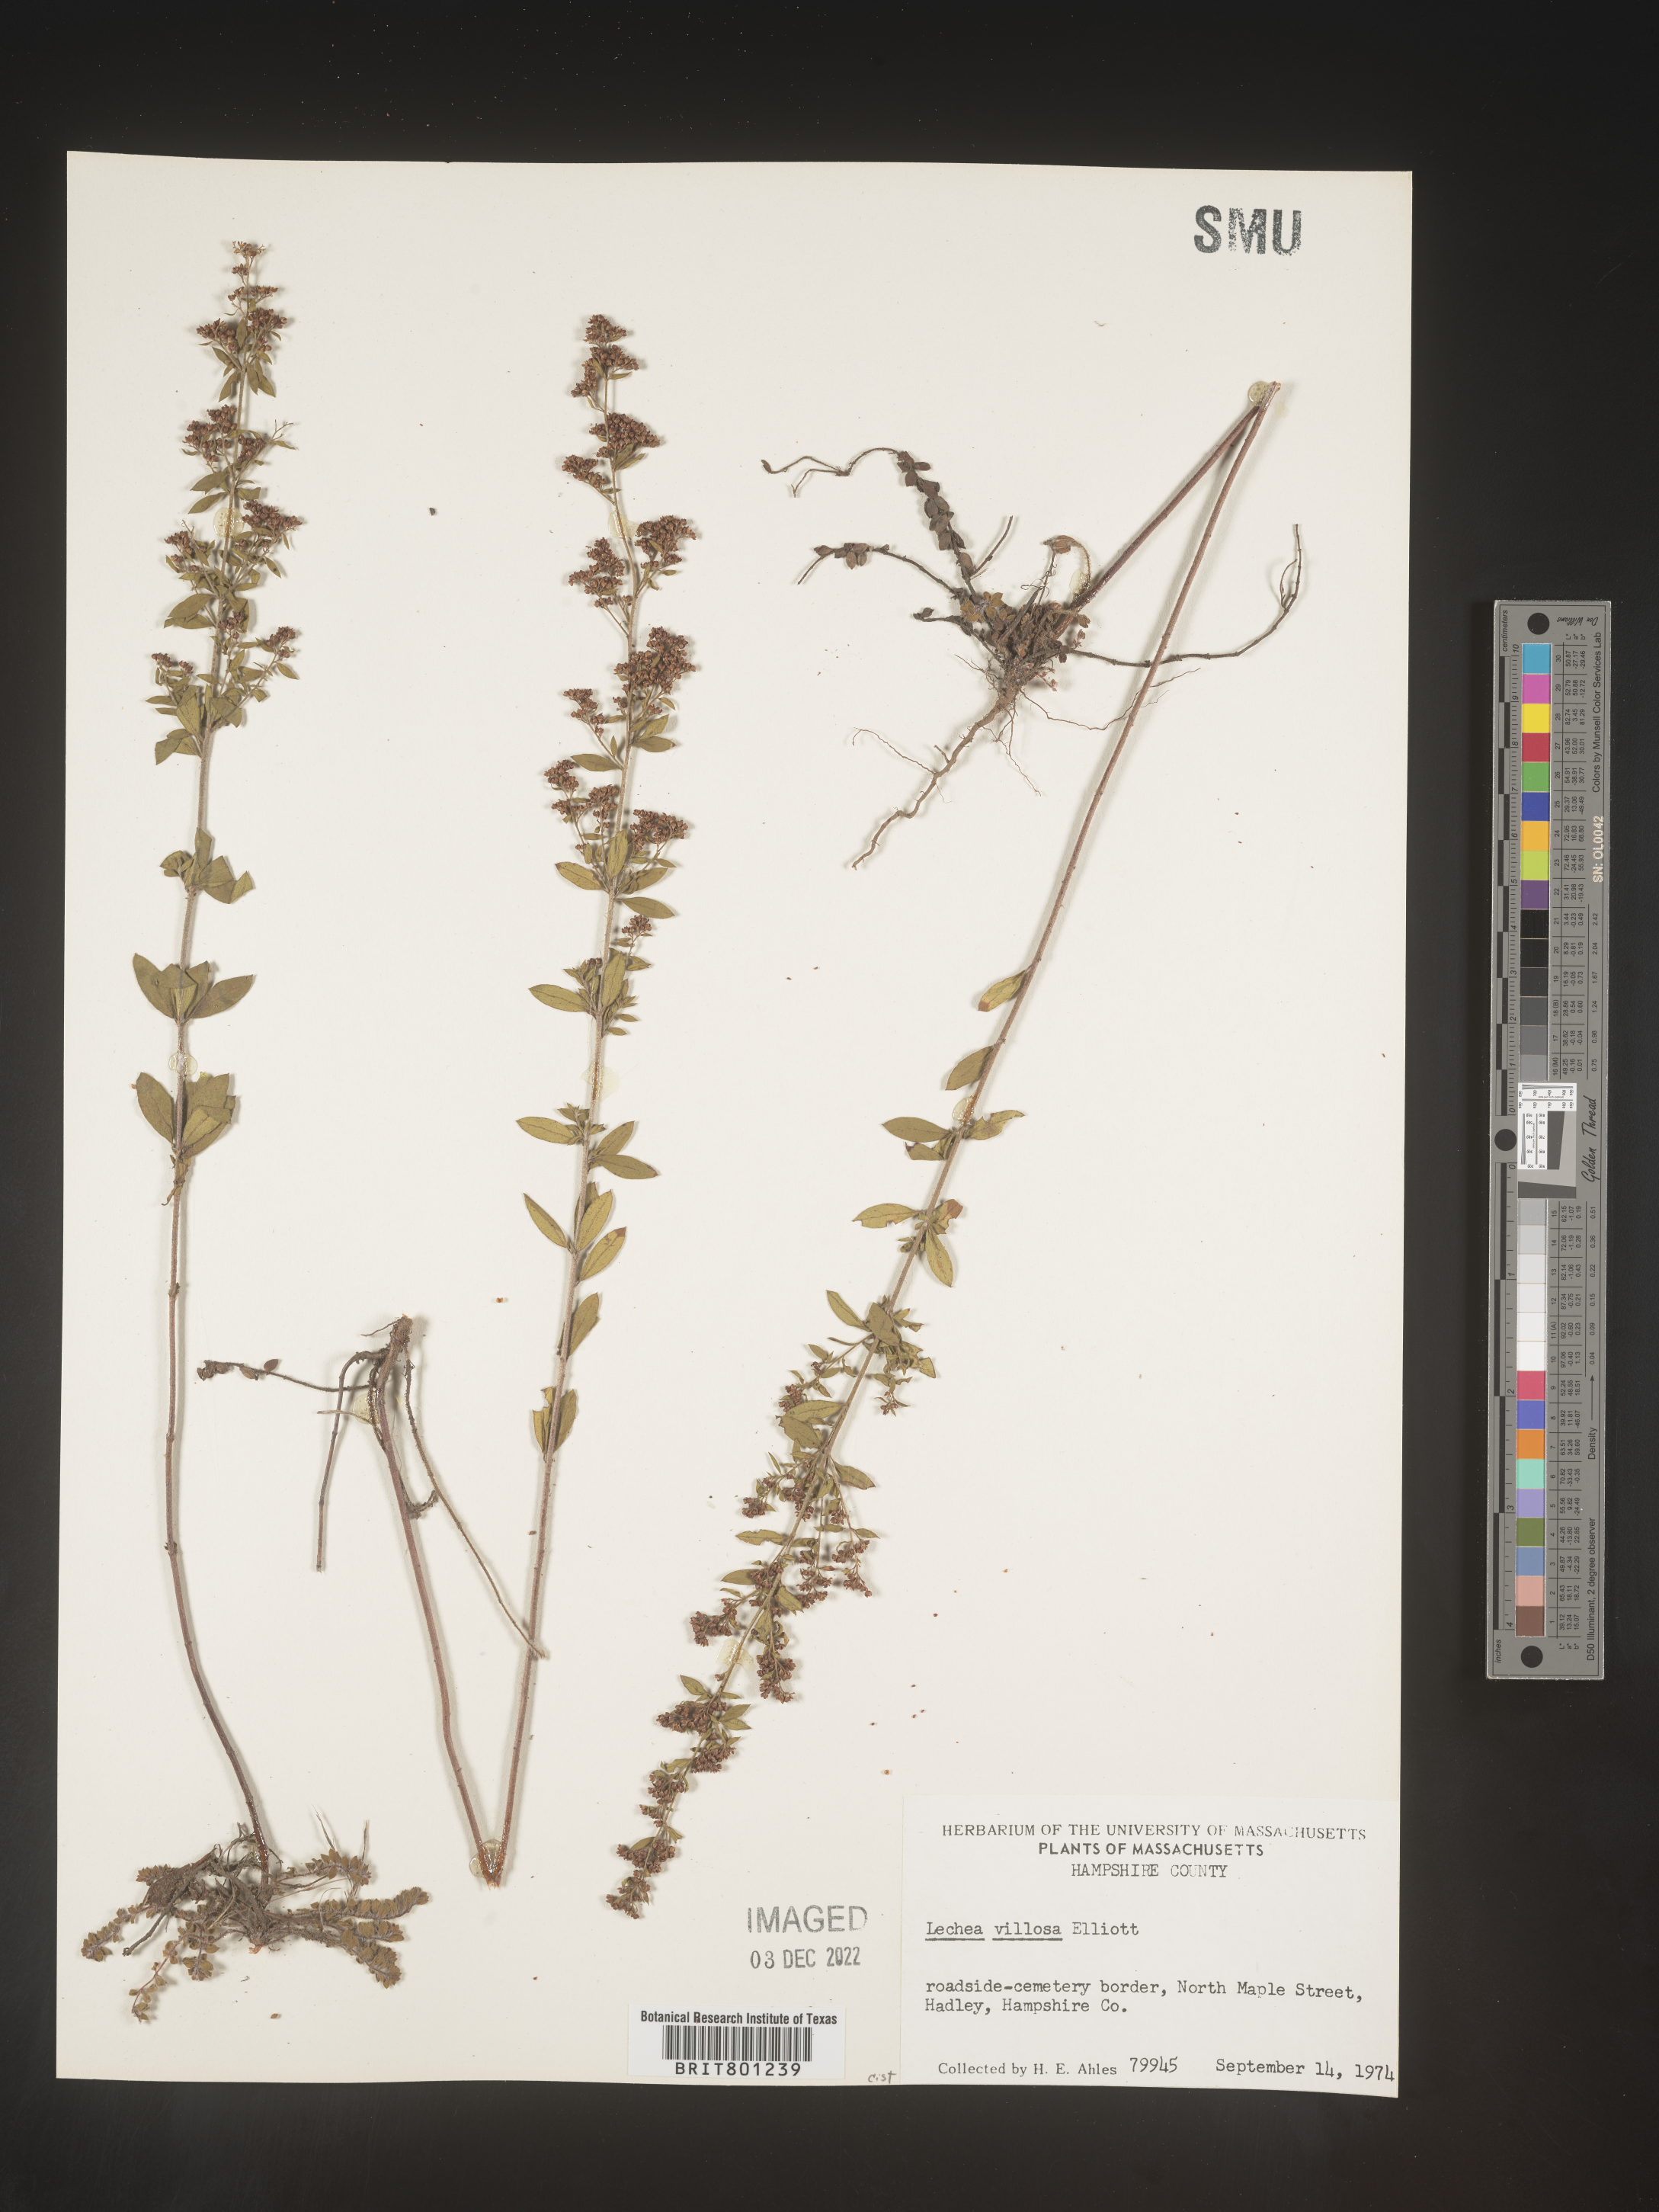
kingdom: Plantae
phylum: Tracheophyta
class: Magnoliopsida
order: Malvales
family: Cistaceae
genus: Lechea
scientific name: Lechea mucronata
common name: Hairy pinweed
